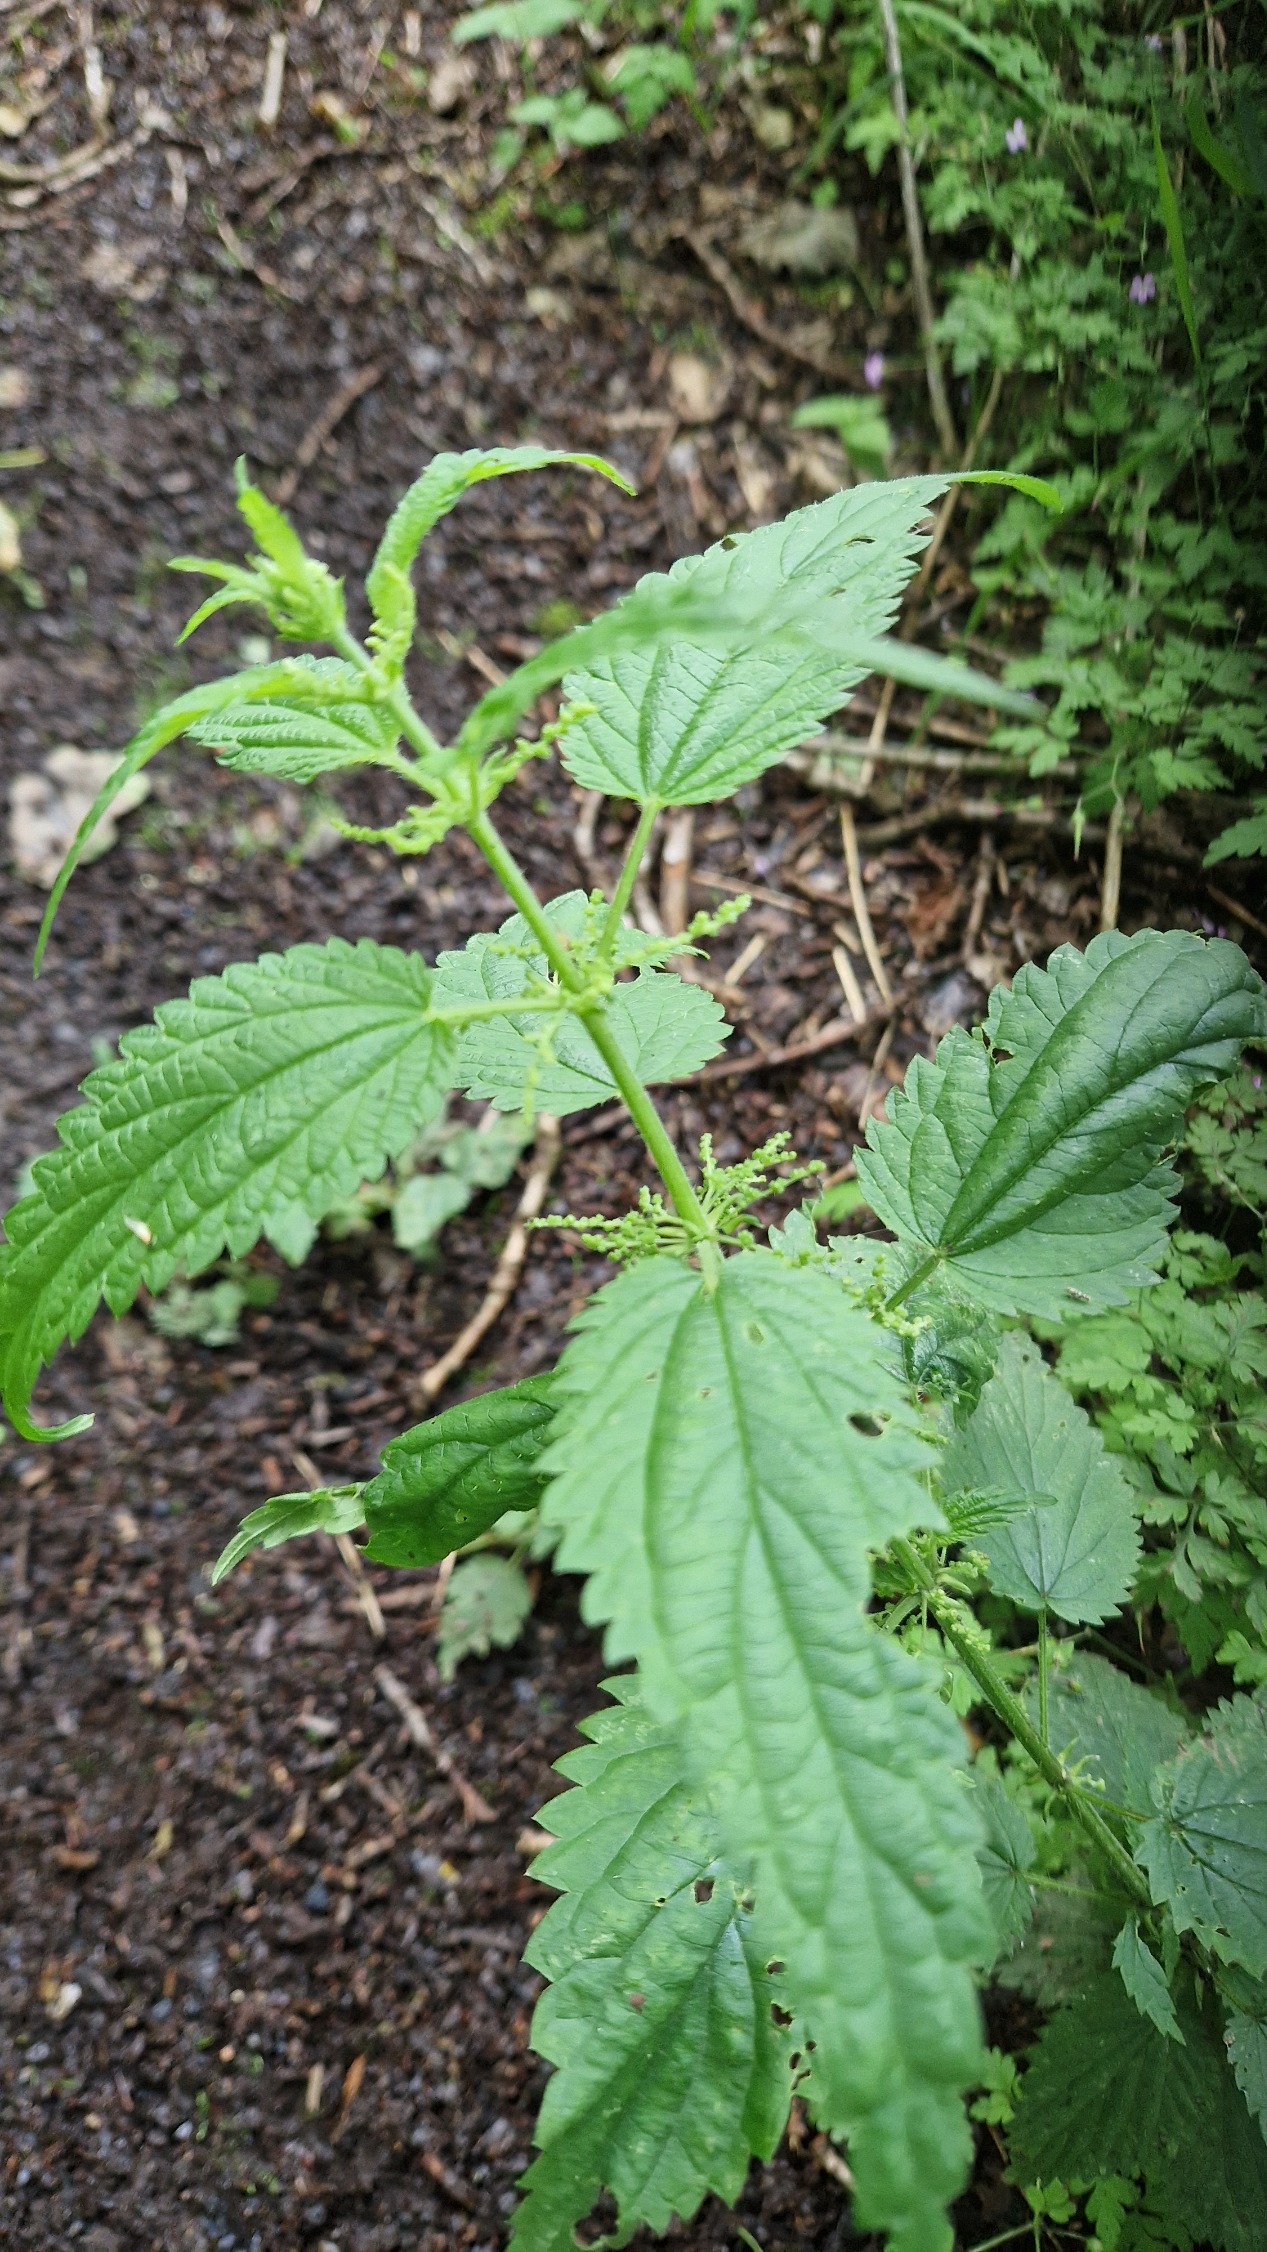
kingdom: Plantae
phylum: Tracheophyta
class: Magnoliopsida
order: Rosales
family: Urticaceae
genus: Urtica
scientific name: Urtica dioica
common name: Stor nælde
